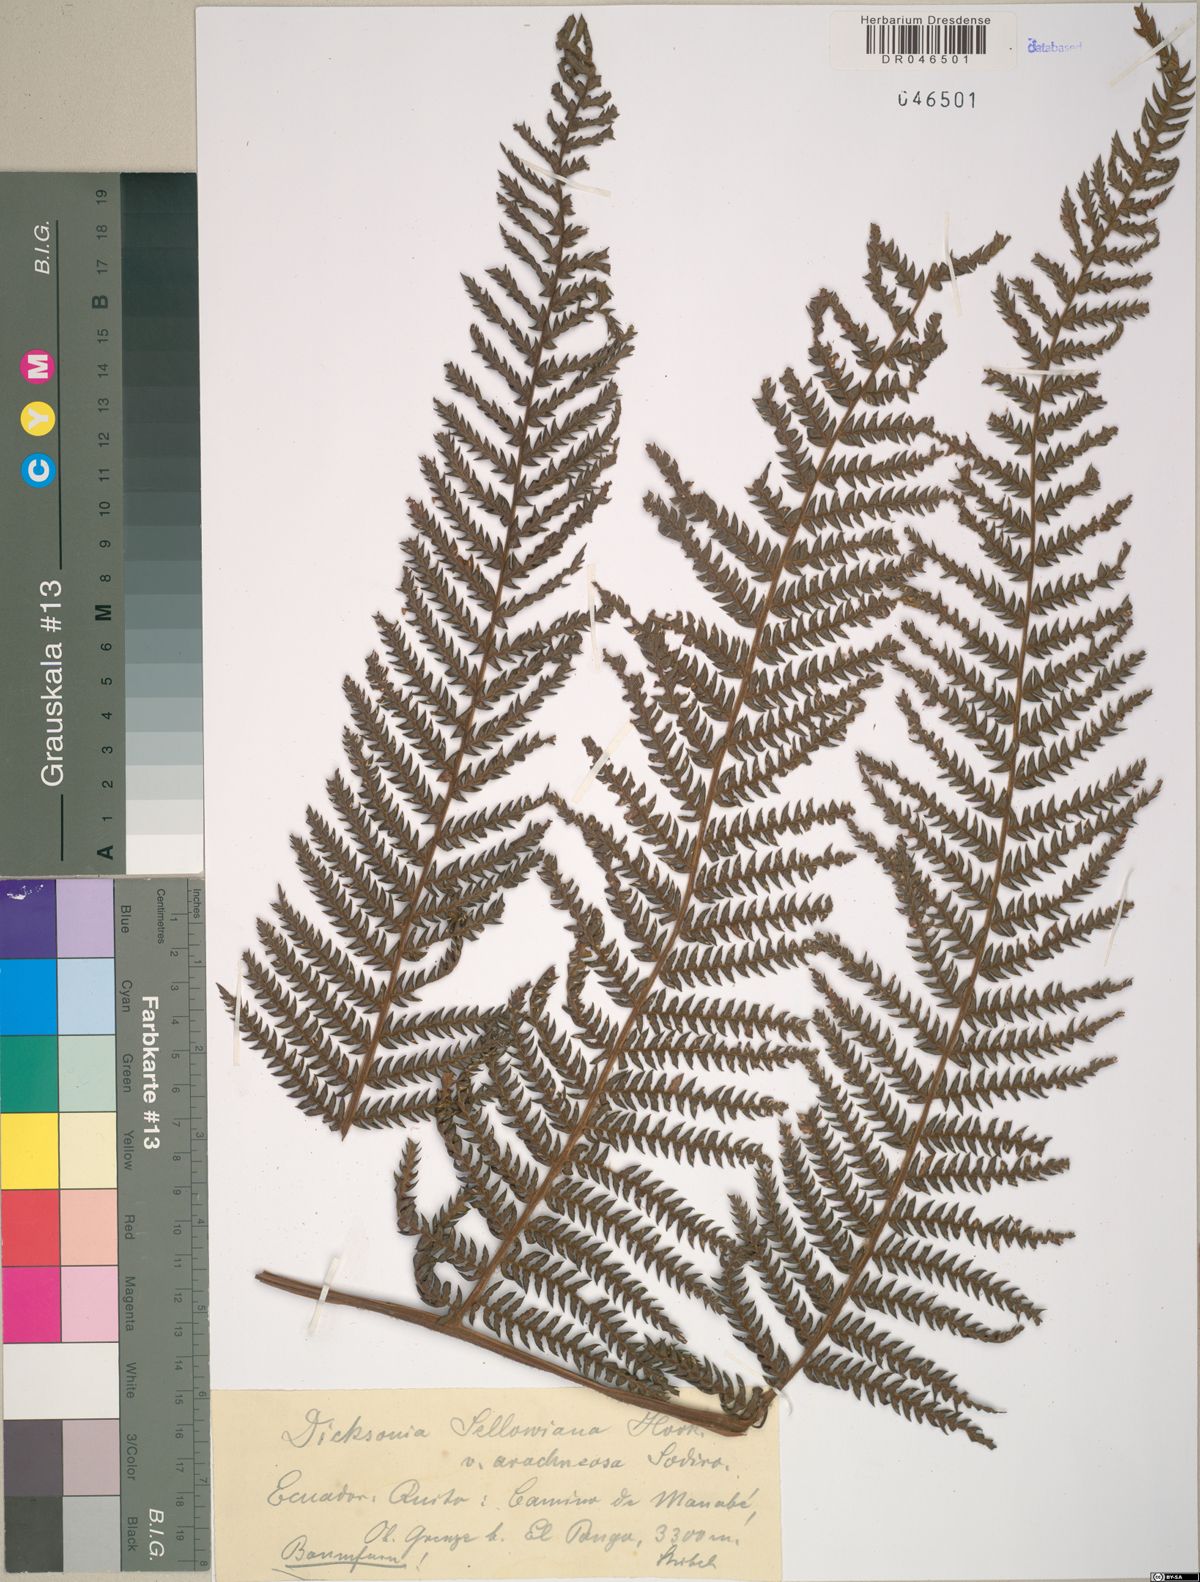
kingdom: Plantae
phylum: Tracheophyta
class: Polypodiopsida
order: Cyatheales
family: Dicksoniaceae
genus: Dicksonia
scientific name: Dicksonia sellowiana
